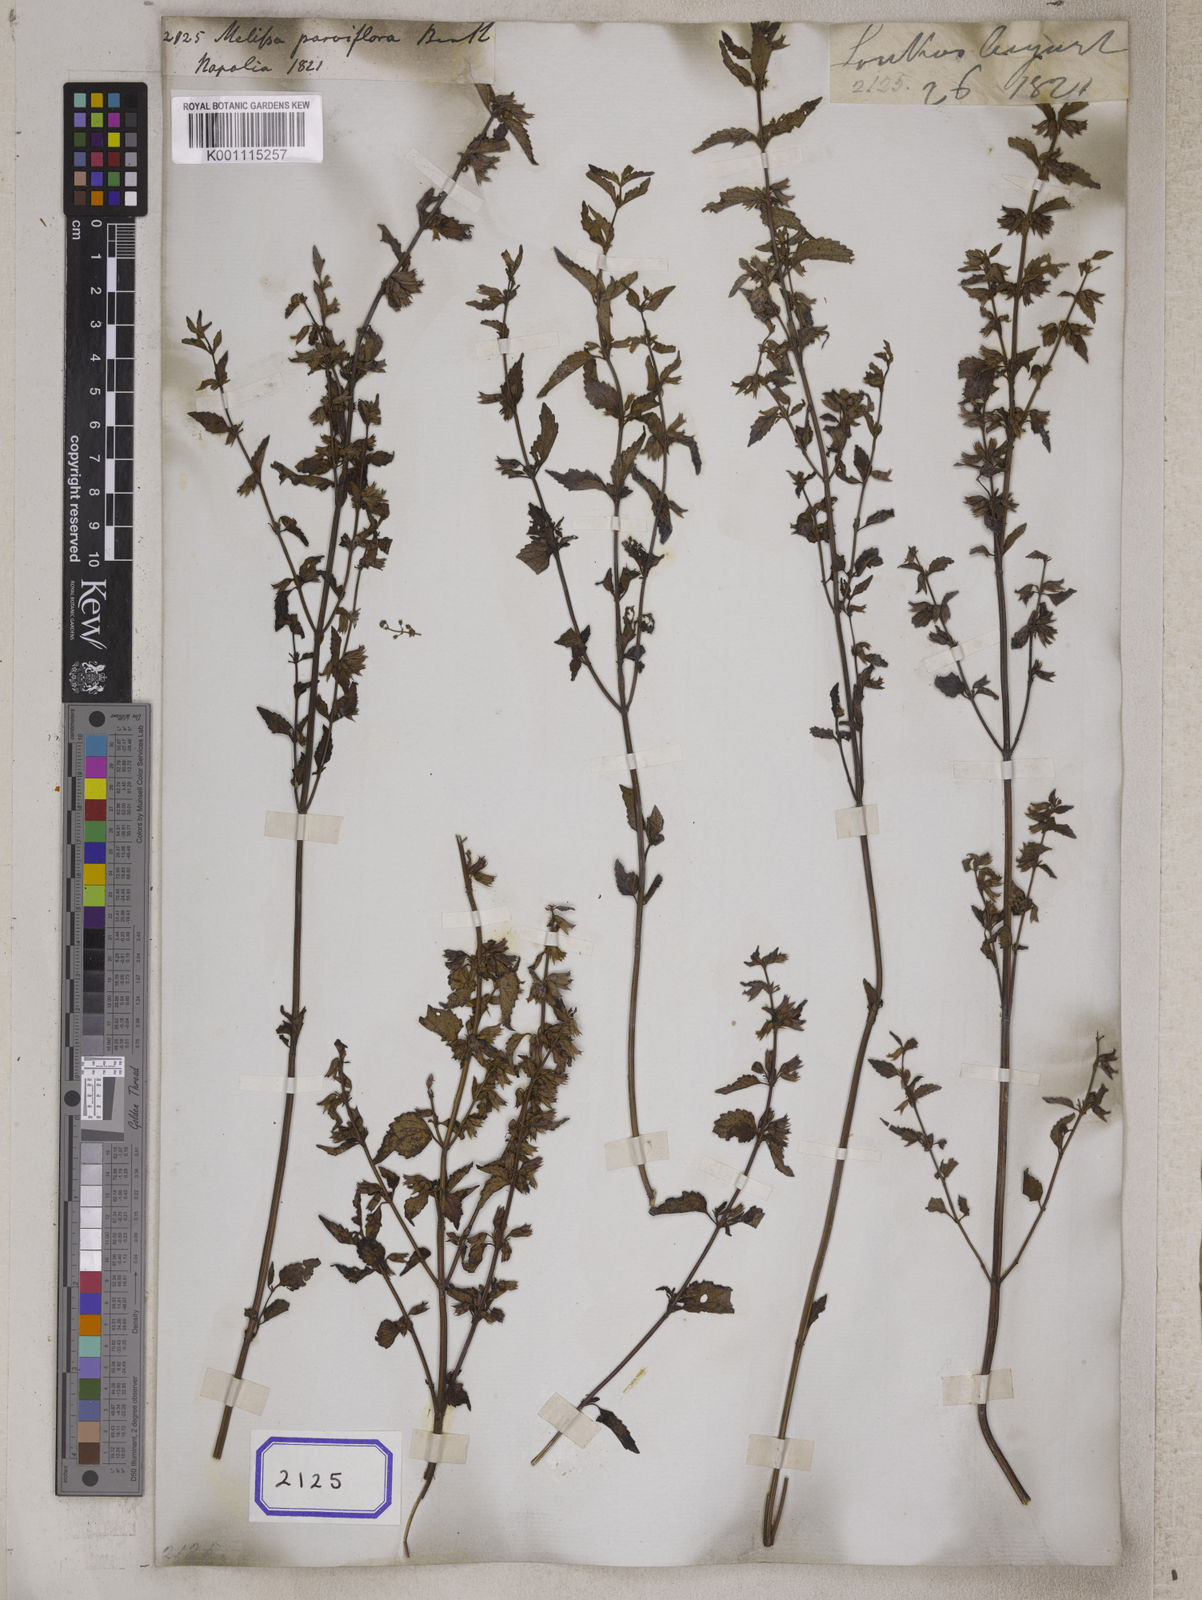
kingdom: Plantae
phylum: Tracheophyta
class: Magnoliopsida
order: Lamiales
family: Lamiaceae
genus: Melissa
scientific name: Melissa axillaris
